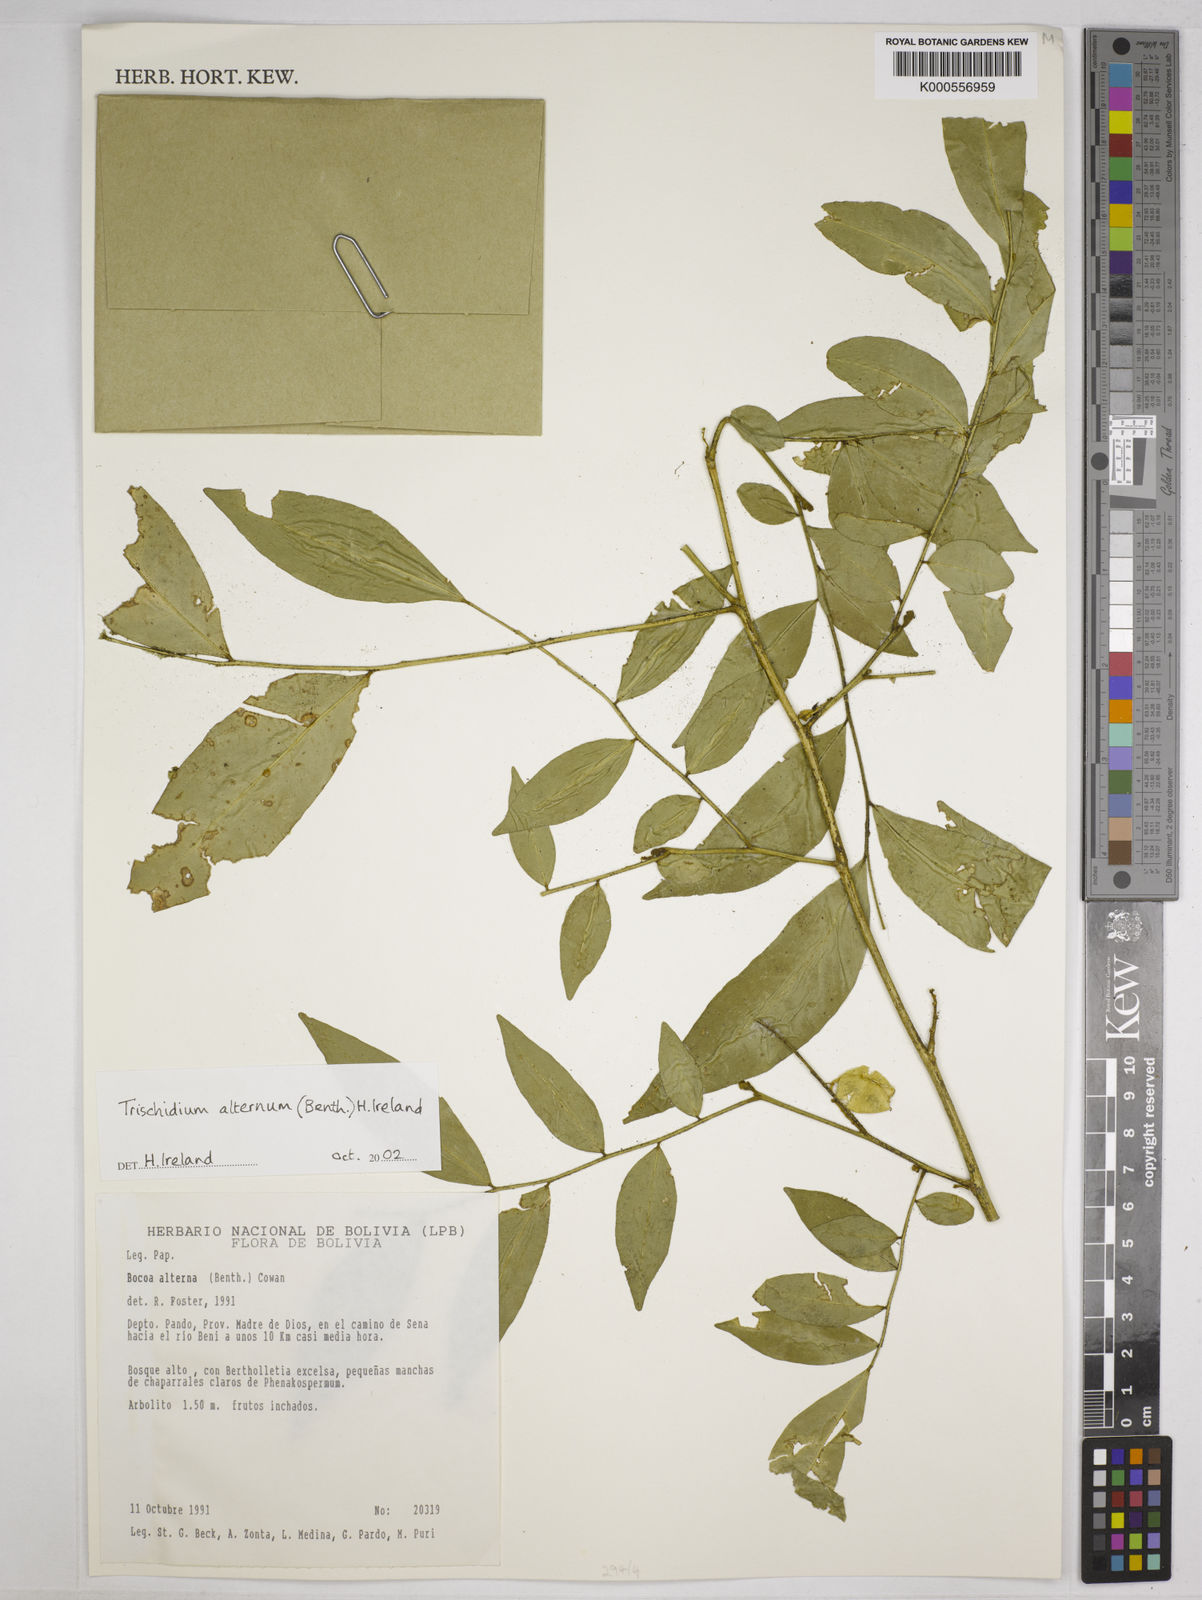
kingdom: Plantae
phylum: Tracheophyta
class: Magnoliopsida
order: Fabales
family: Fabaceae
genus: Trischidium
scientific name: Trischidium alternum
